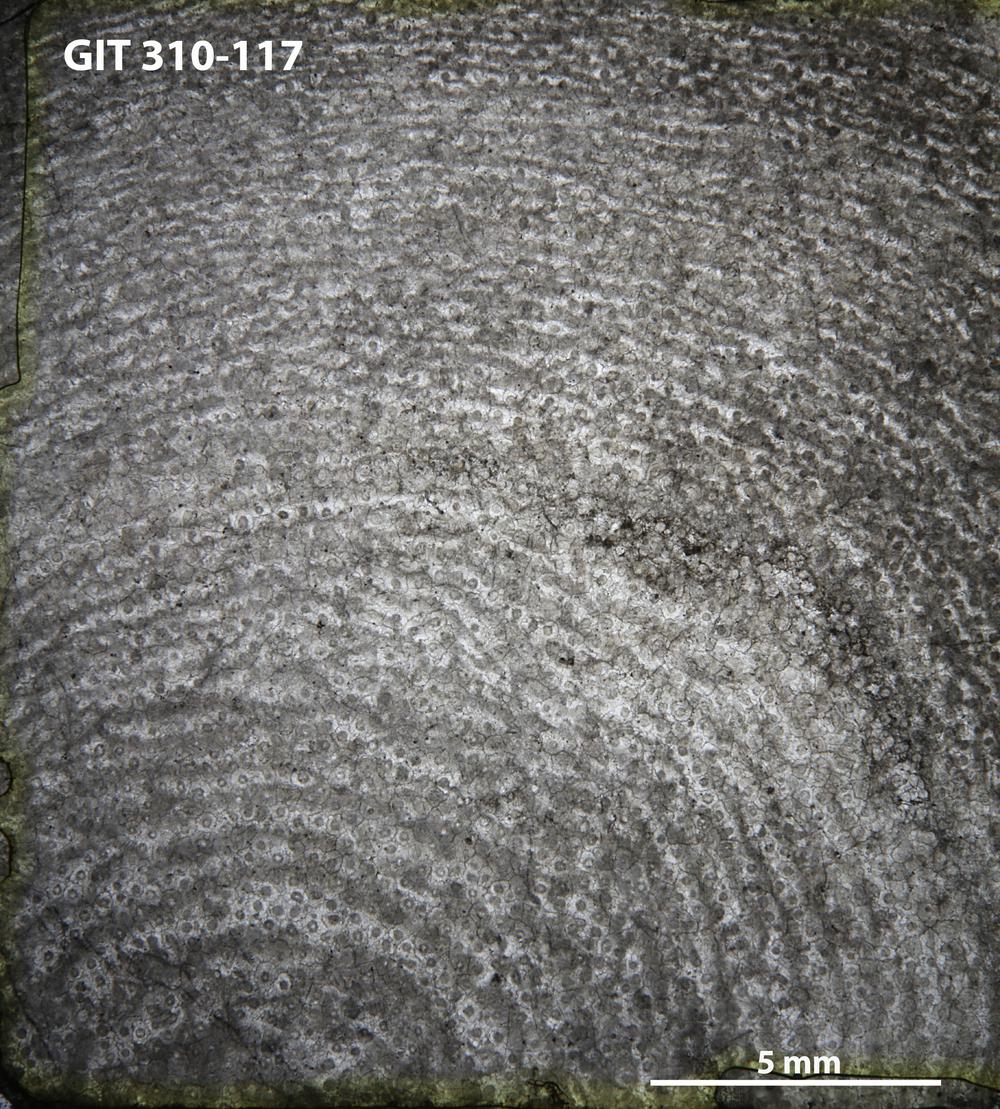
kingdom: Animalia
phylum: Porifera
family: Labechiidae
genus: Labechiella
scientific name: Labechiella regularis
